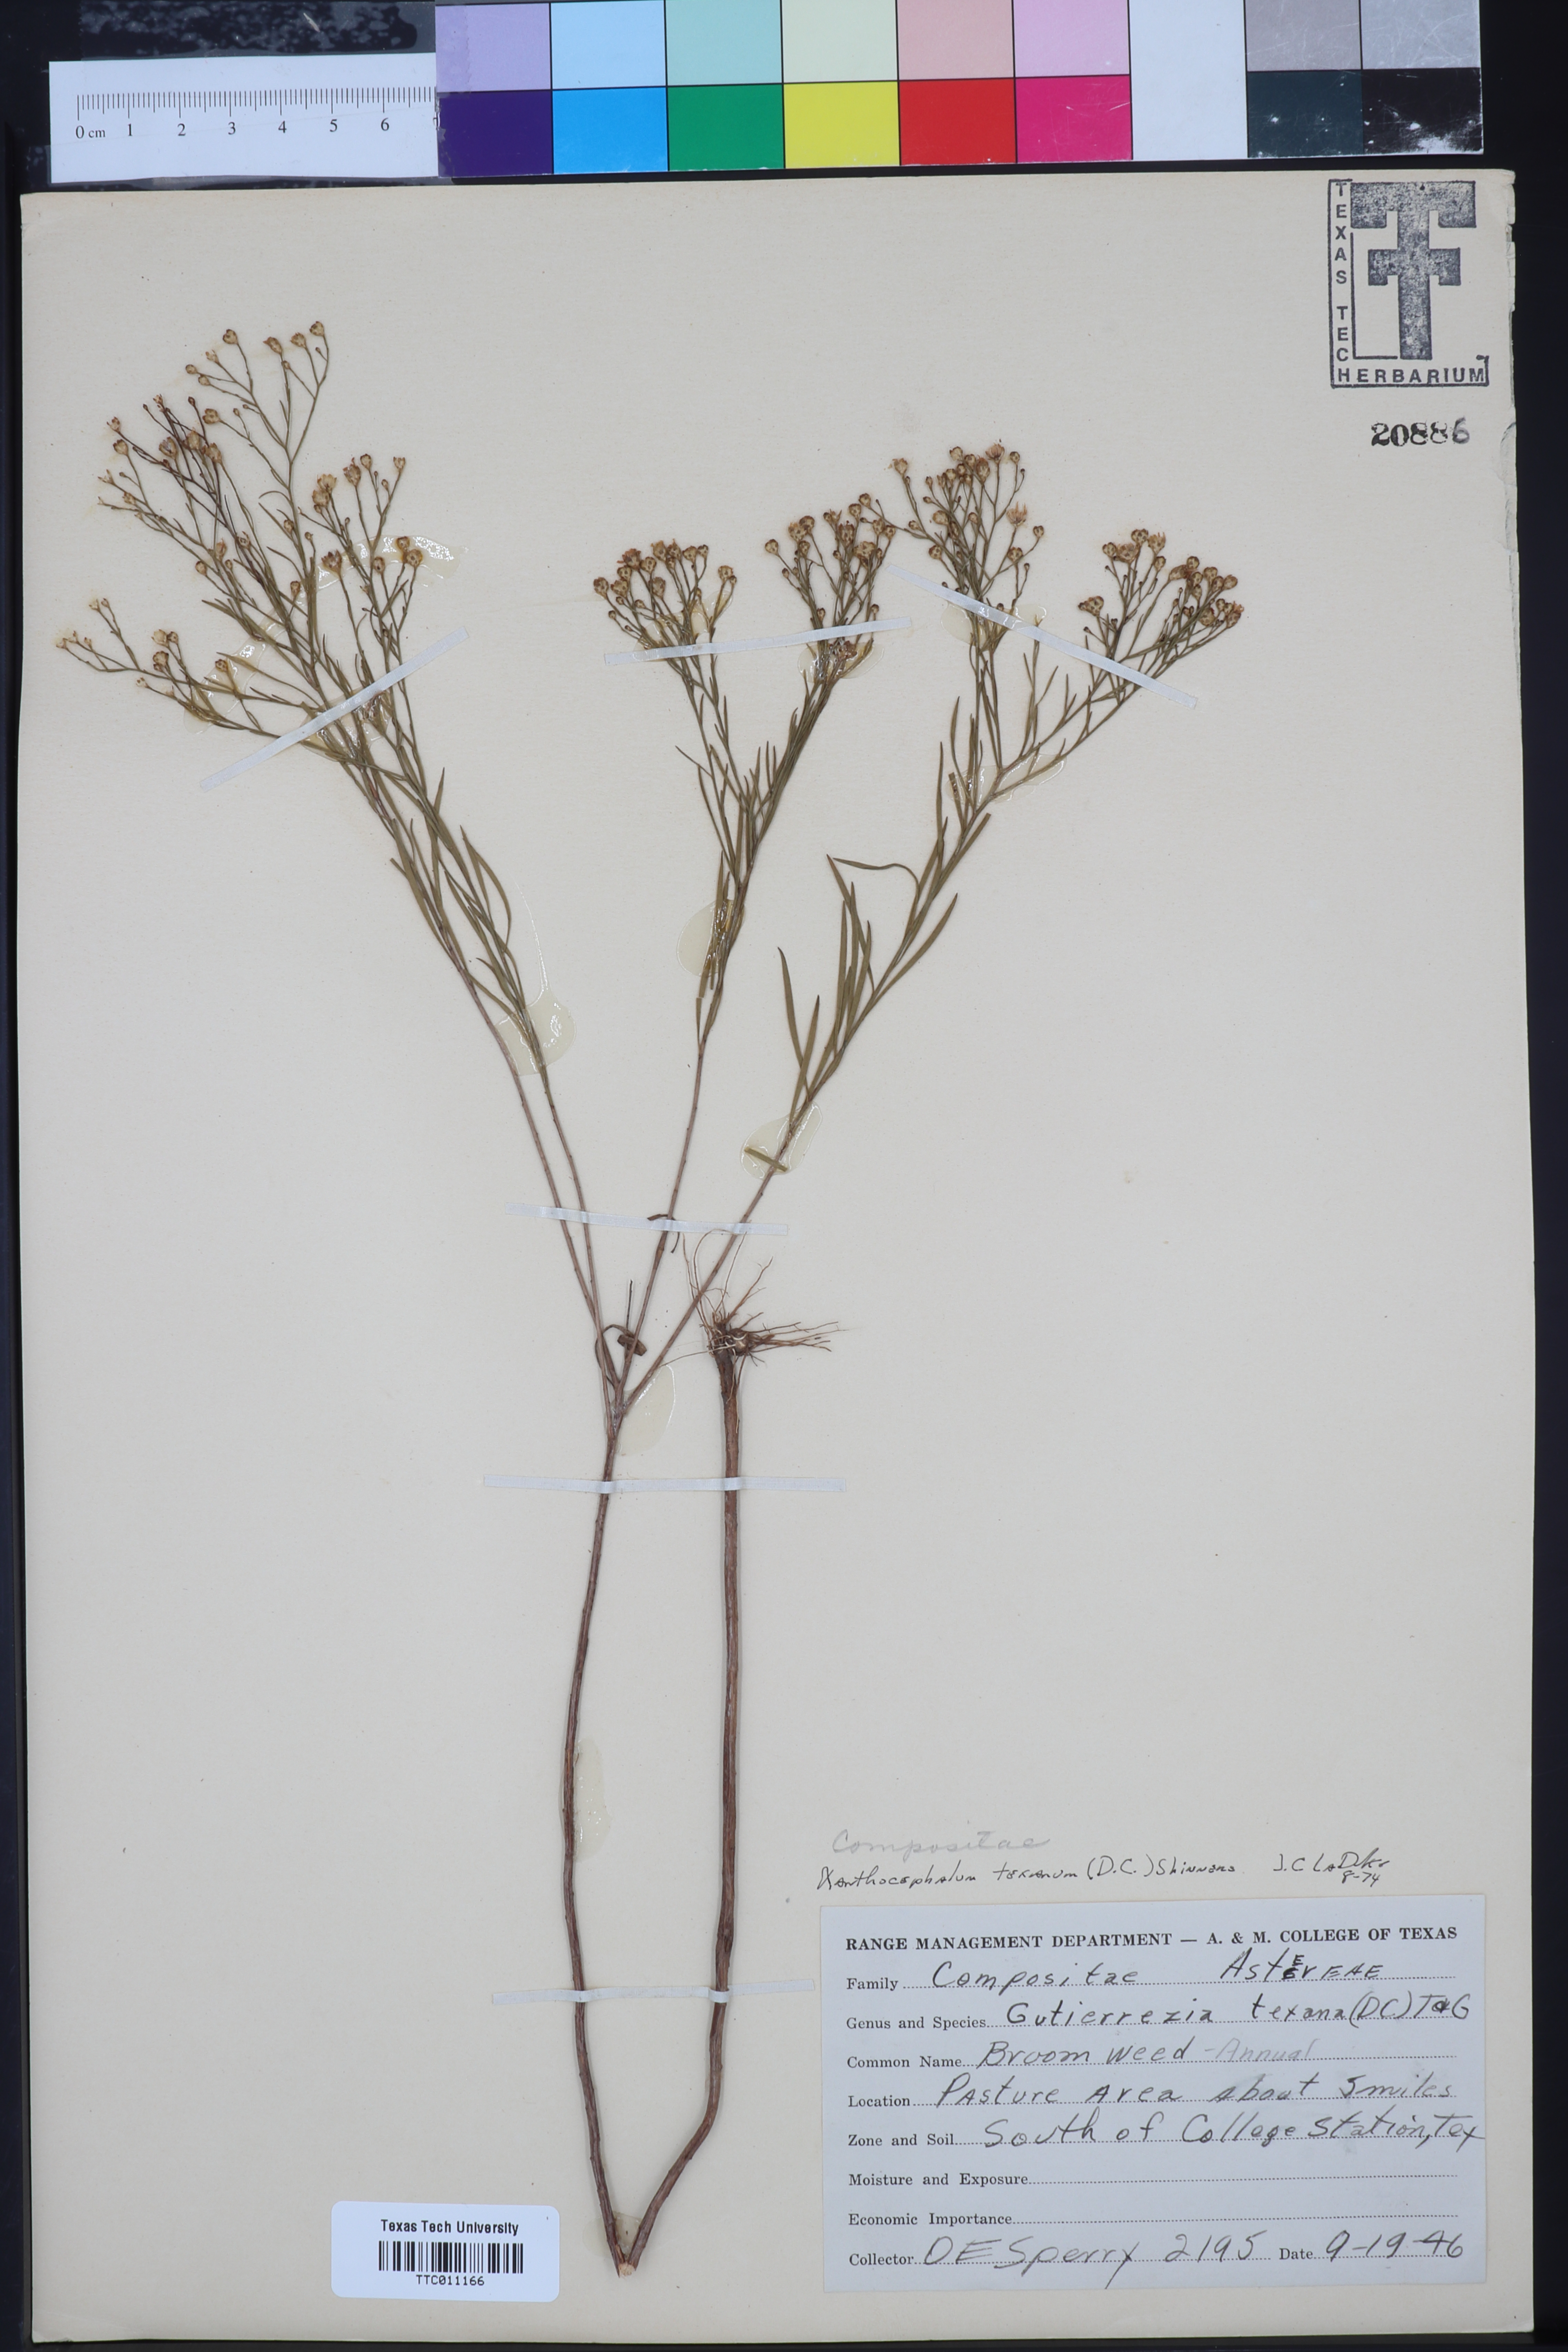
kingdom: Plantae
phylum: Tracheophyta
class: Magnoliopsida
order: Asterales
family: Asteraceae
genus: Gutierrezia
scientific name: Gutierrezia texana
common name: Texas snakeweed
